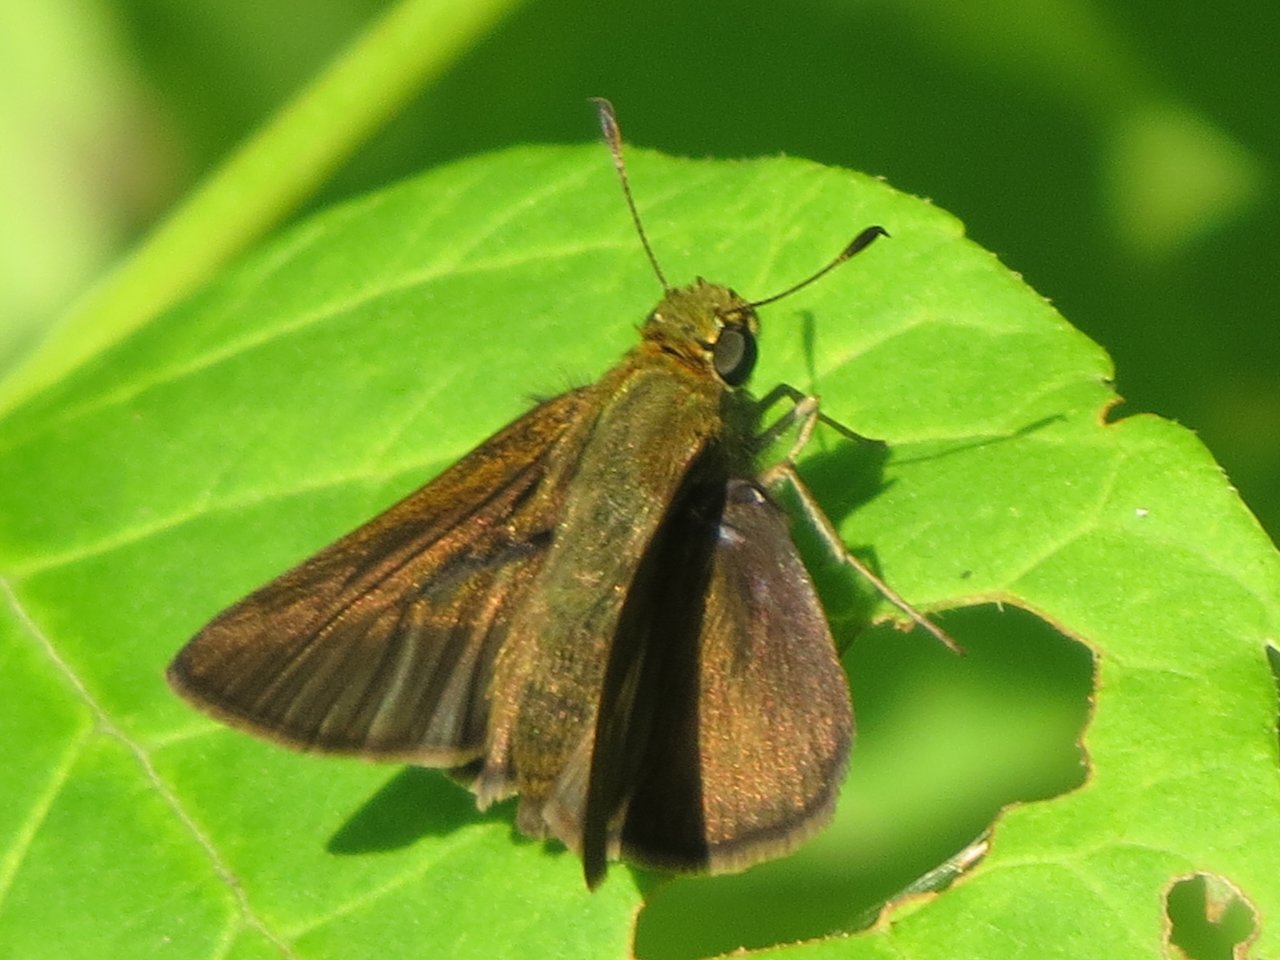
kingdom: Animalia
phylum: Arthropoda
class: Insecta
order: Lepidoptera
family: Hesperiidae
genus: Euphyes
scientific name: Euphyes vestris
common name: Dun Skipper
